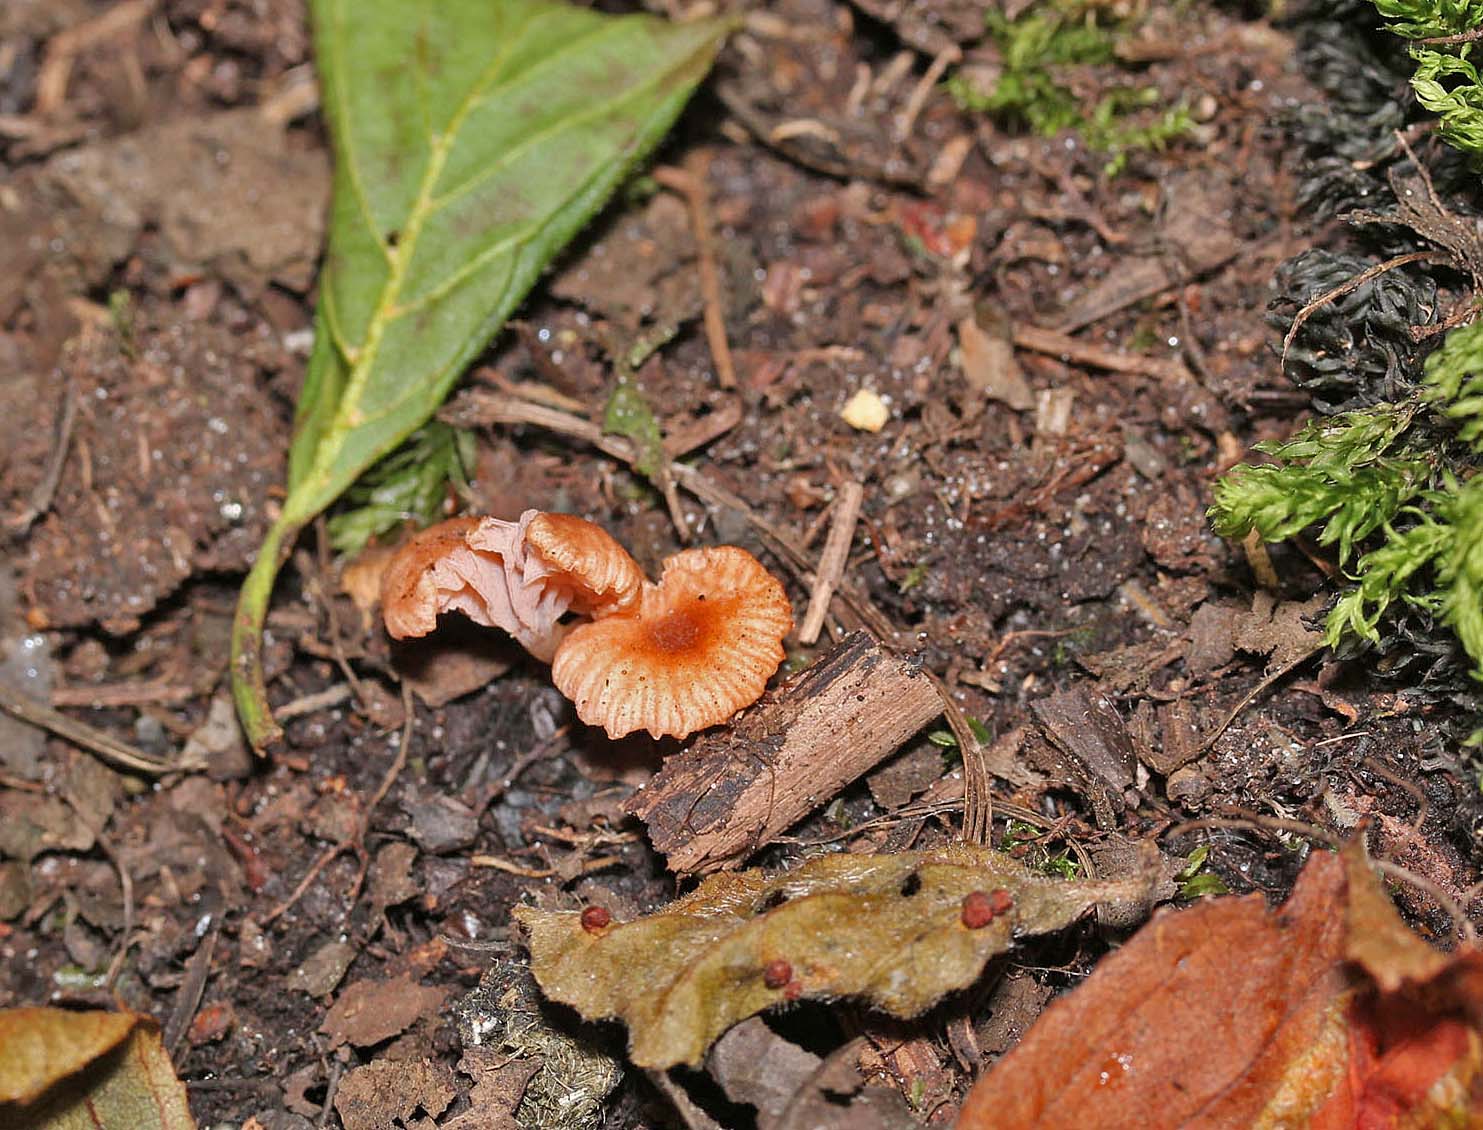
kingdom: Fungi
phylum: Basidiomycota
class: Agaricomycetes
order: Agaricales
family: Hydnangiaceae
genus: Laccaria
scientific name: Laccaria tortilis
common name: krybende ametysthat
